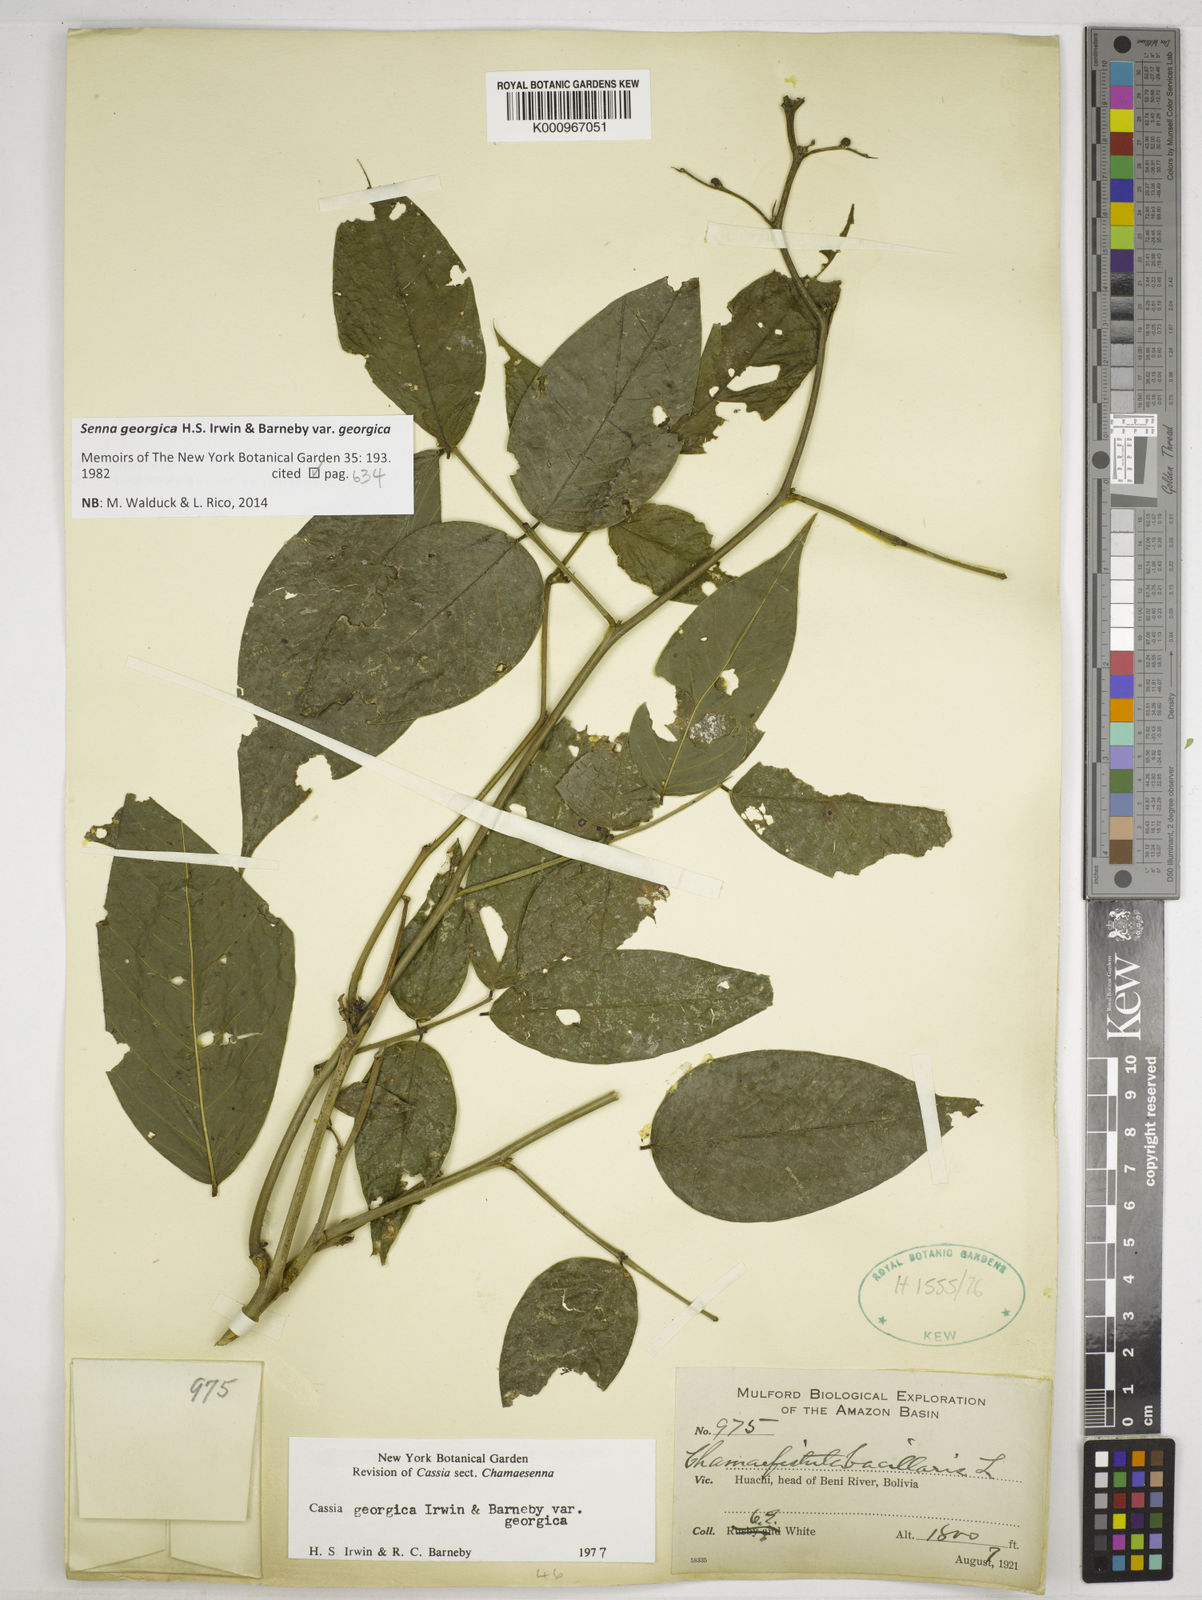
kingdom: Plantae
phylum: Tracheophyta
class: Magnoliopsida
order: Fabales
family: Fabaceae
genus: Senna
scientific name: Senna georgica
